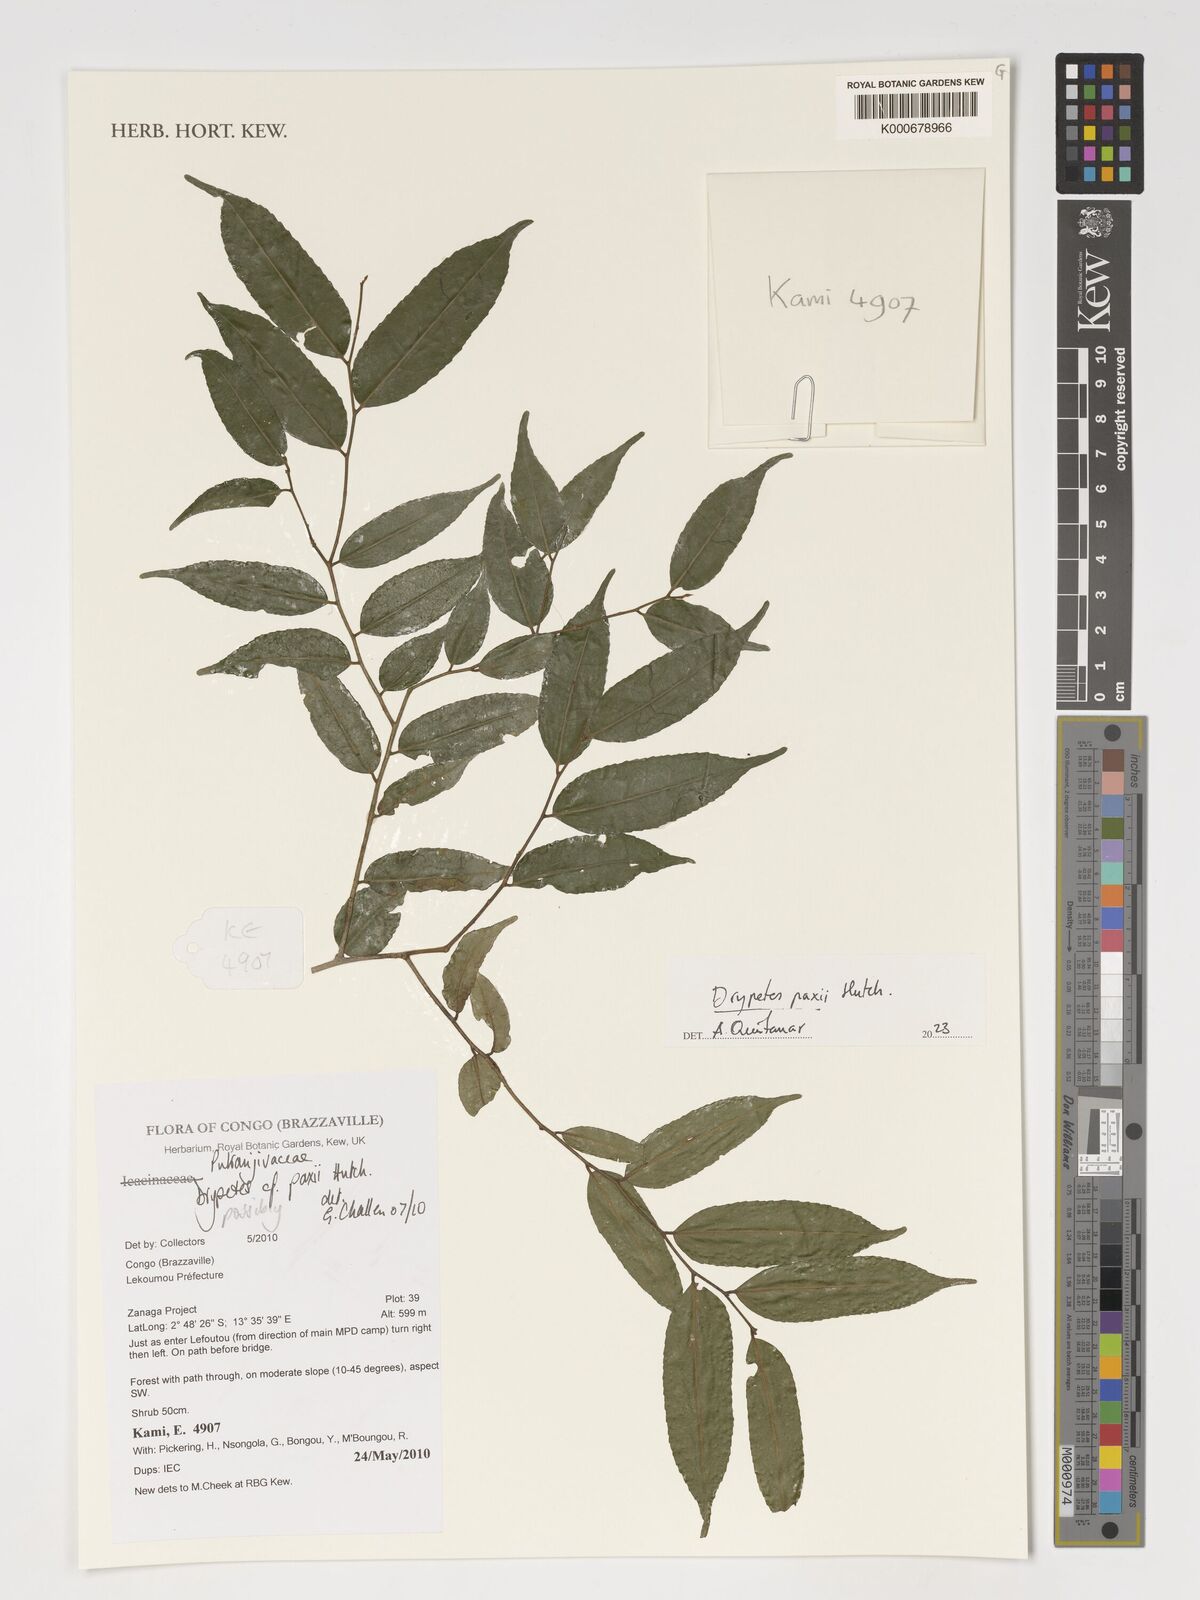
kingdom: Plantae
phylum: Tracheophyta
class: Magnoliopsida
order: Malpighiales
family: Putranjivaceae
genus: Drypetes
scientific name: Drypetes paxii
